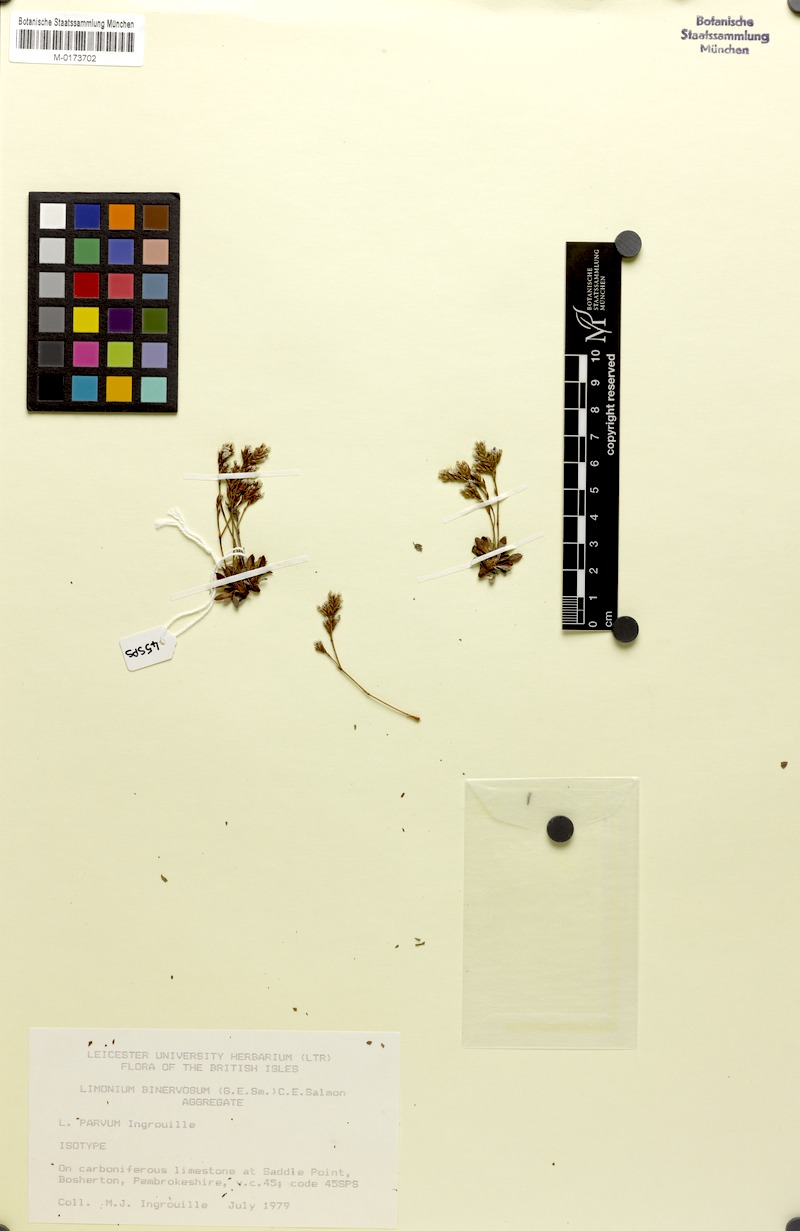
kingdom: Plantae
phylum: Tracheophyta
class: Magnoliopsida
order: Caryophyllales
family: Plumbaginaceae
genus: Limonium
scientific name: Limonium parvum
